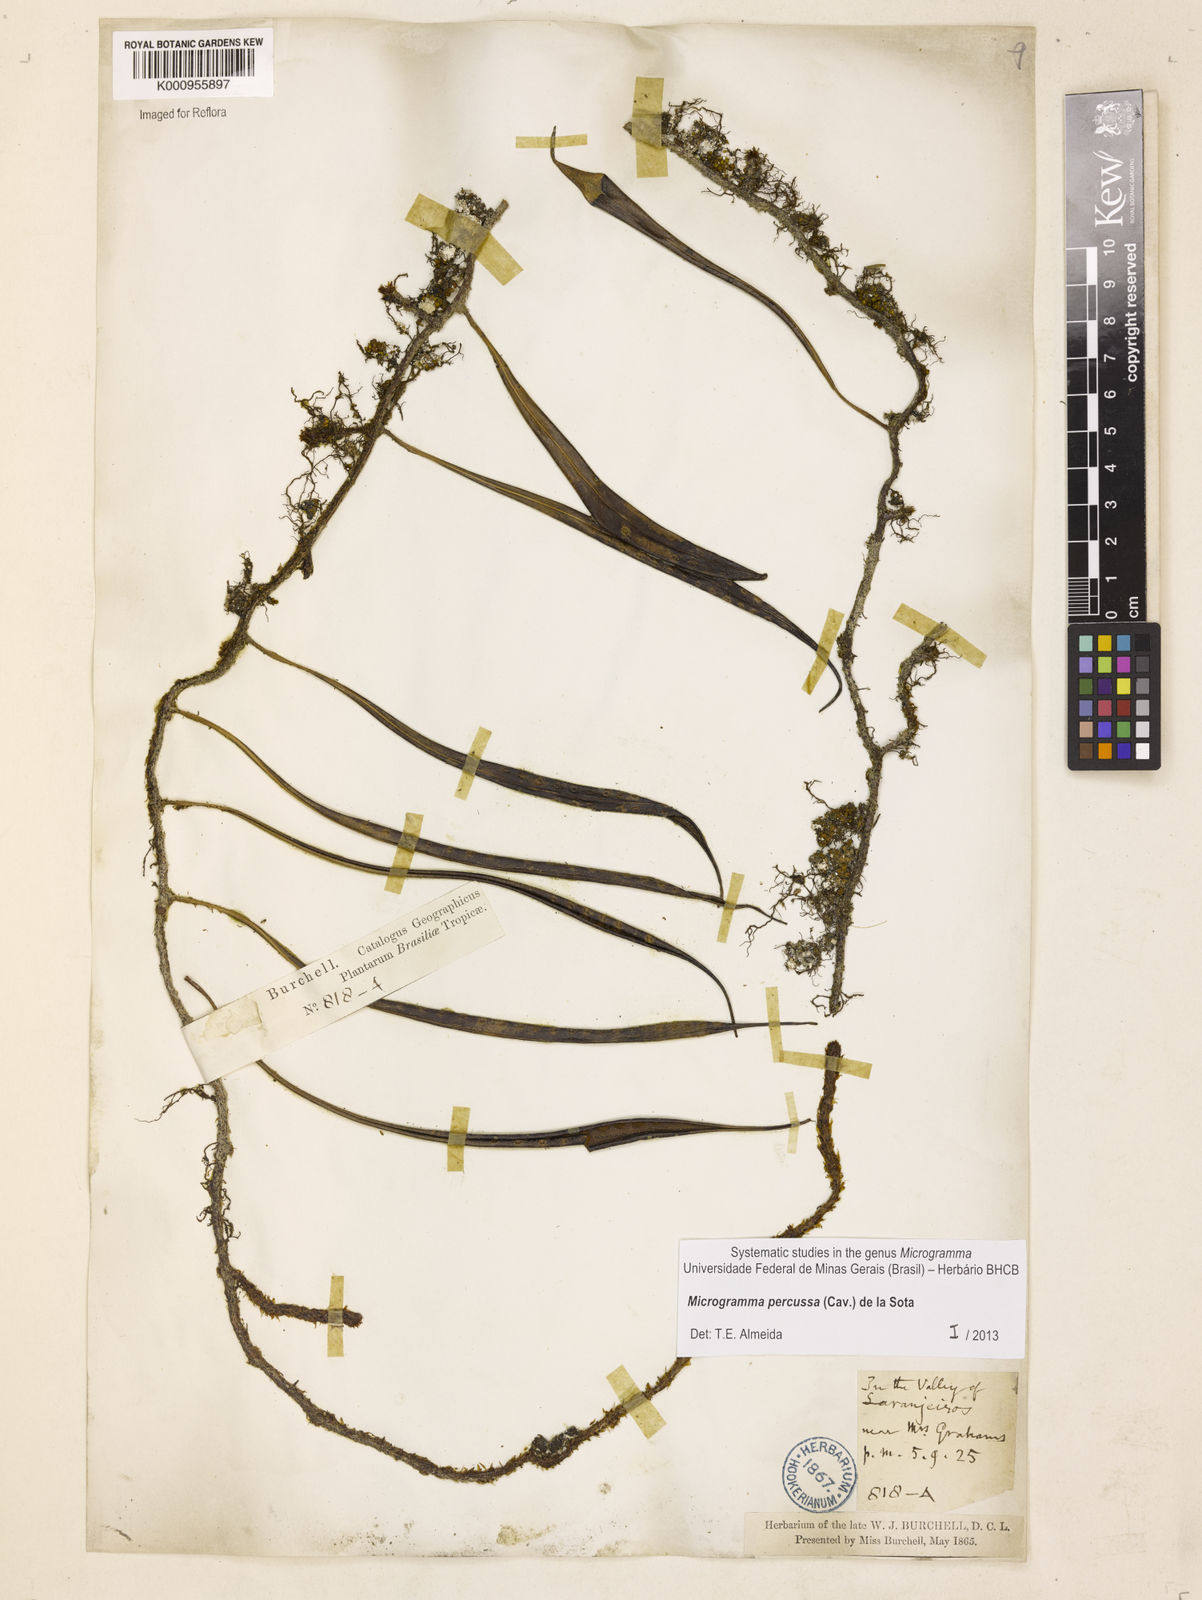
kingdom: Plantae
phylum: Tracheophyta
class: Polypodiopsida
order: Polypodiales
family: Polypodiaceae
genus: Microgramma
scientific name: Microgramma percussa
